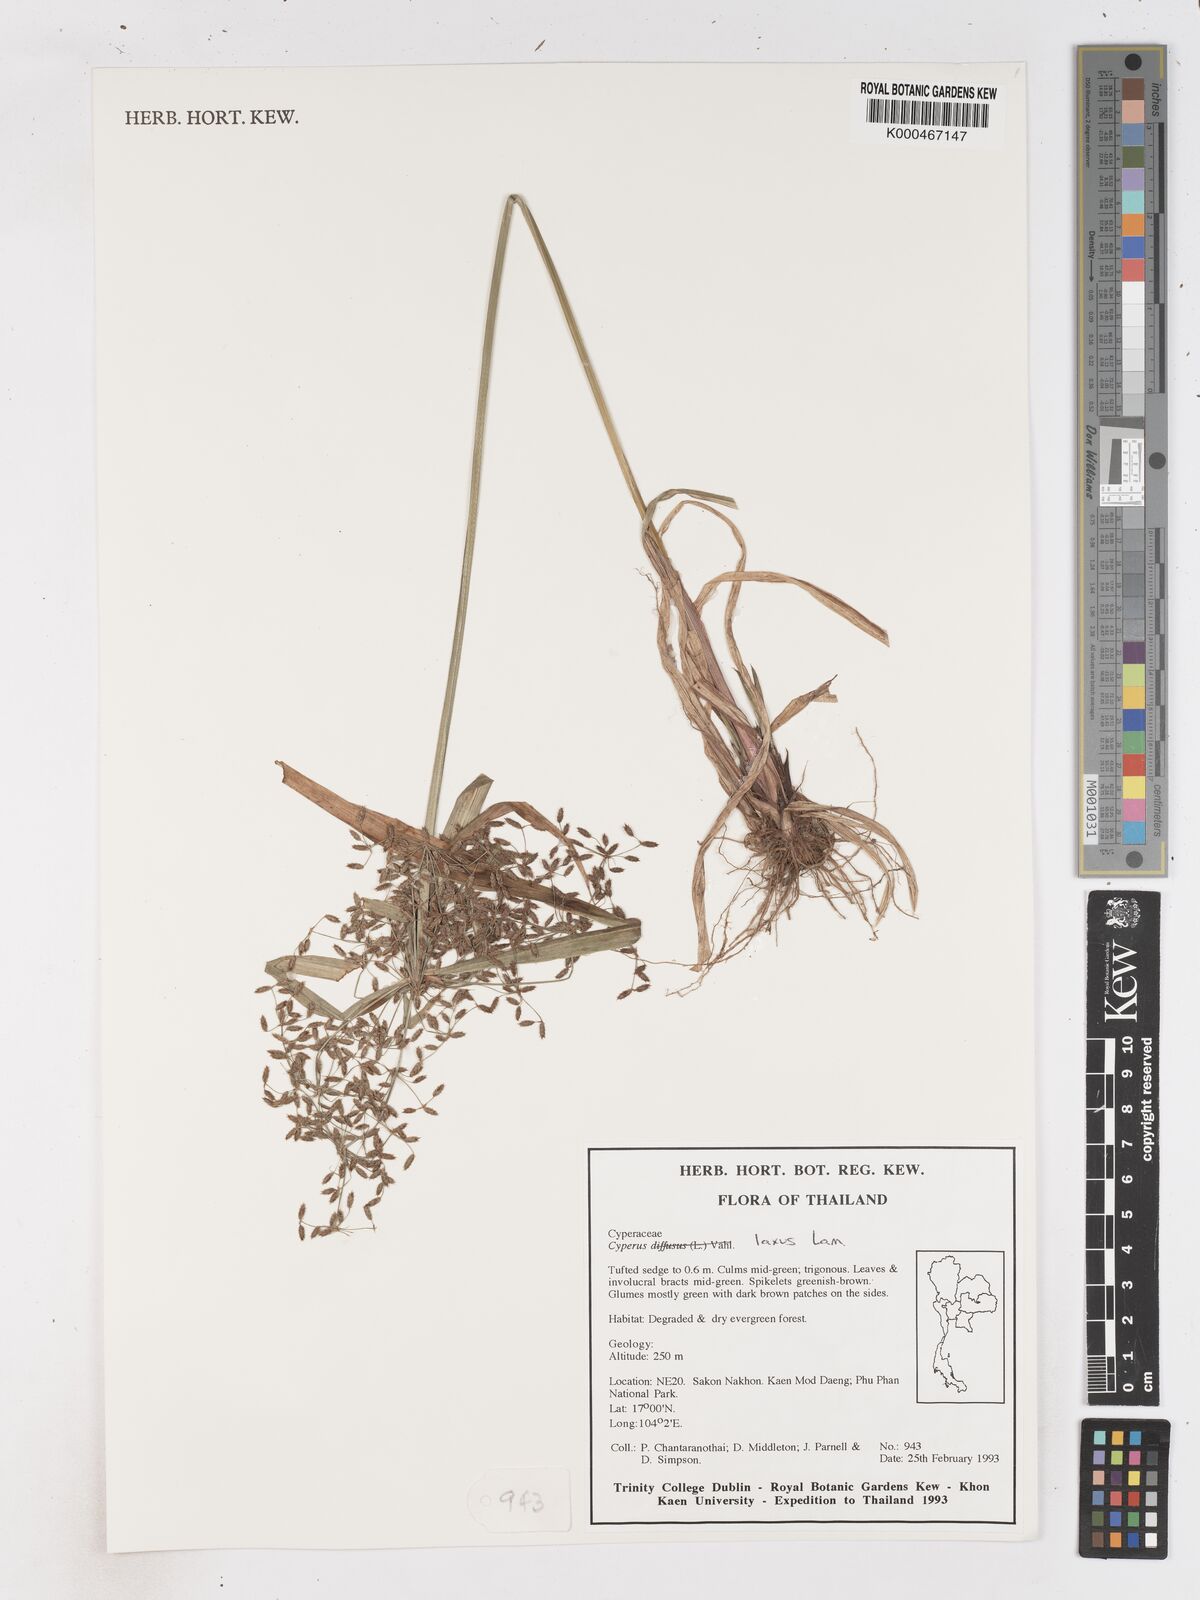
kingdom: Plantae
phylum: Tracheophyta
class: Liliopsida
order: Poales
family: Cyperaceae
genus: Cyperus
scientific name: Cyperus diffusus
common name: Dwarf umbrella grass
